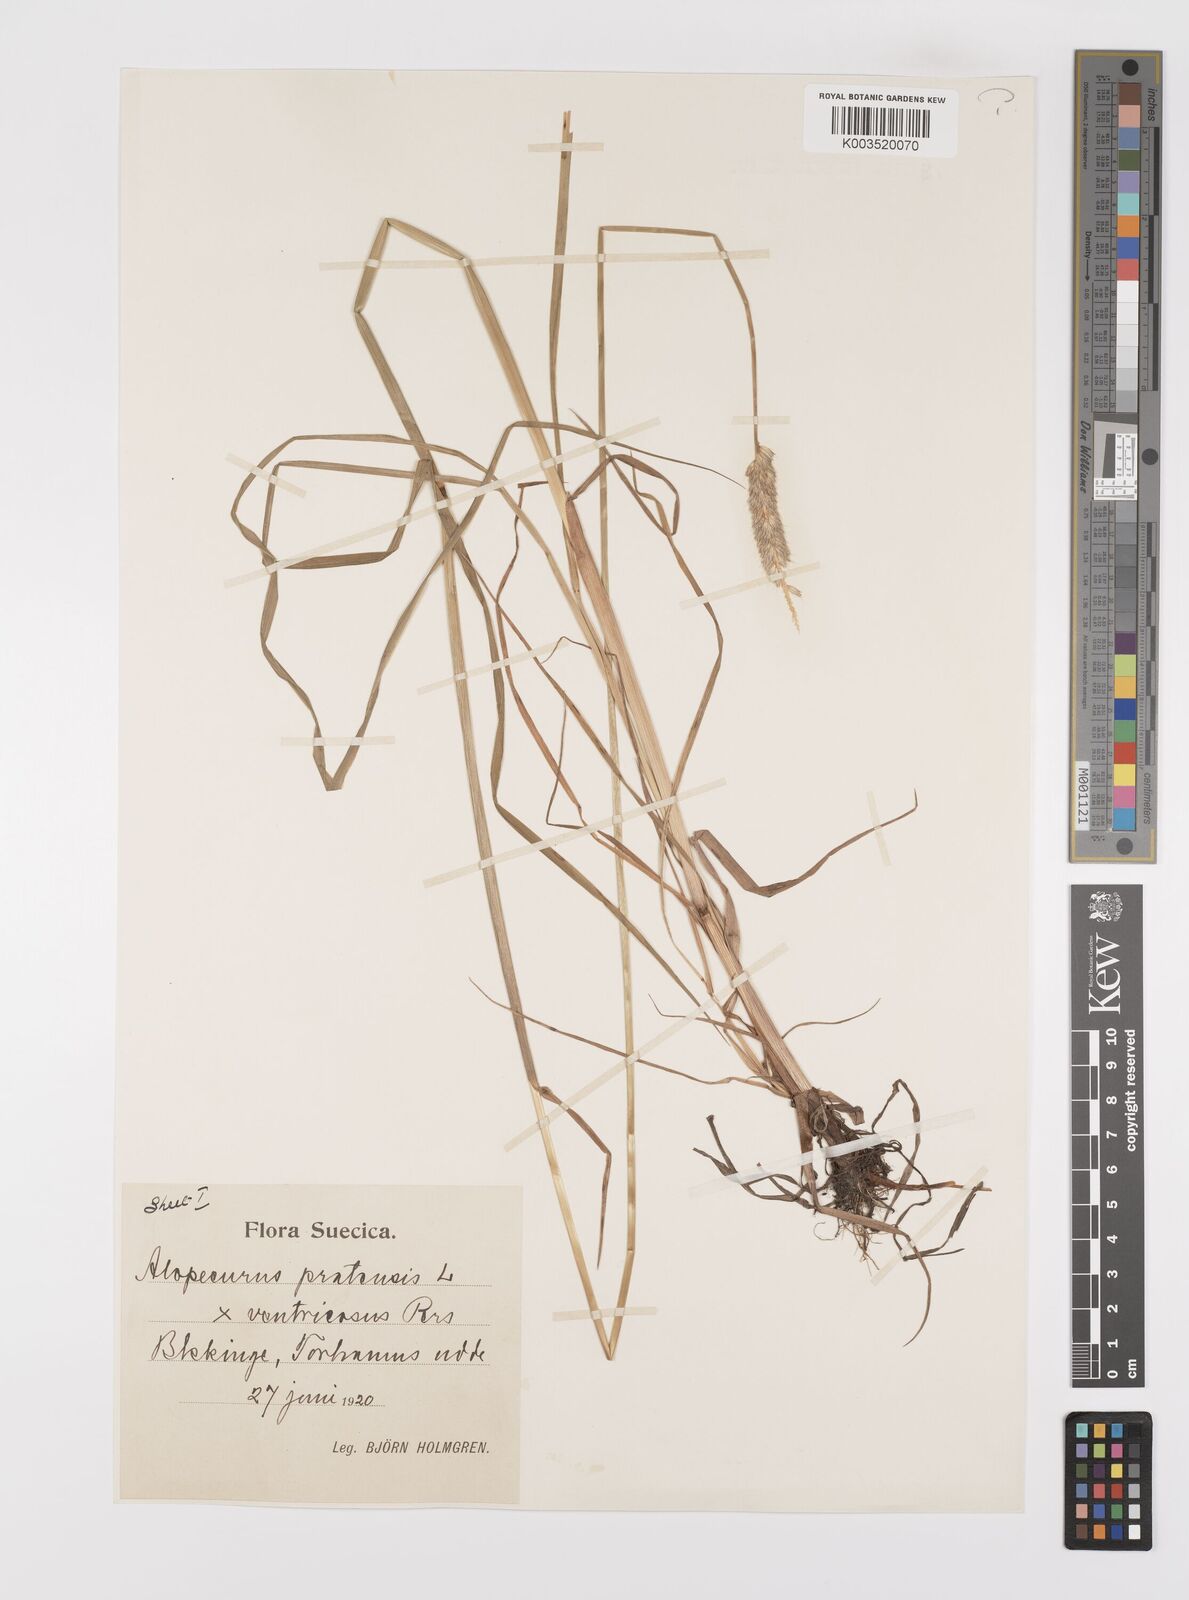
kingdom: Plantae
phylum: Tracheophyta
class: Liliopsida
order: Poales
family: Poaceae
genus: Alopecurus
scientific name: Alopecurus arundinaceus
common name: Creeping meadow foxtail
